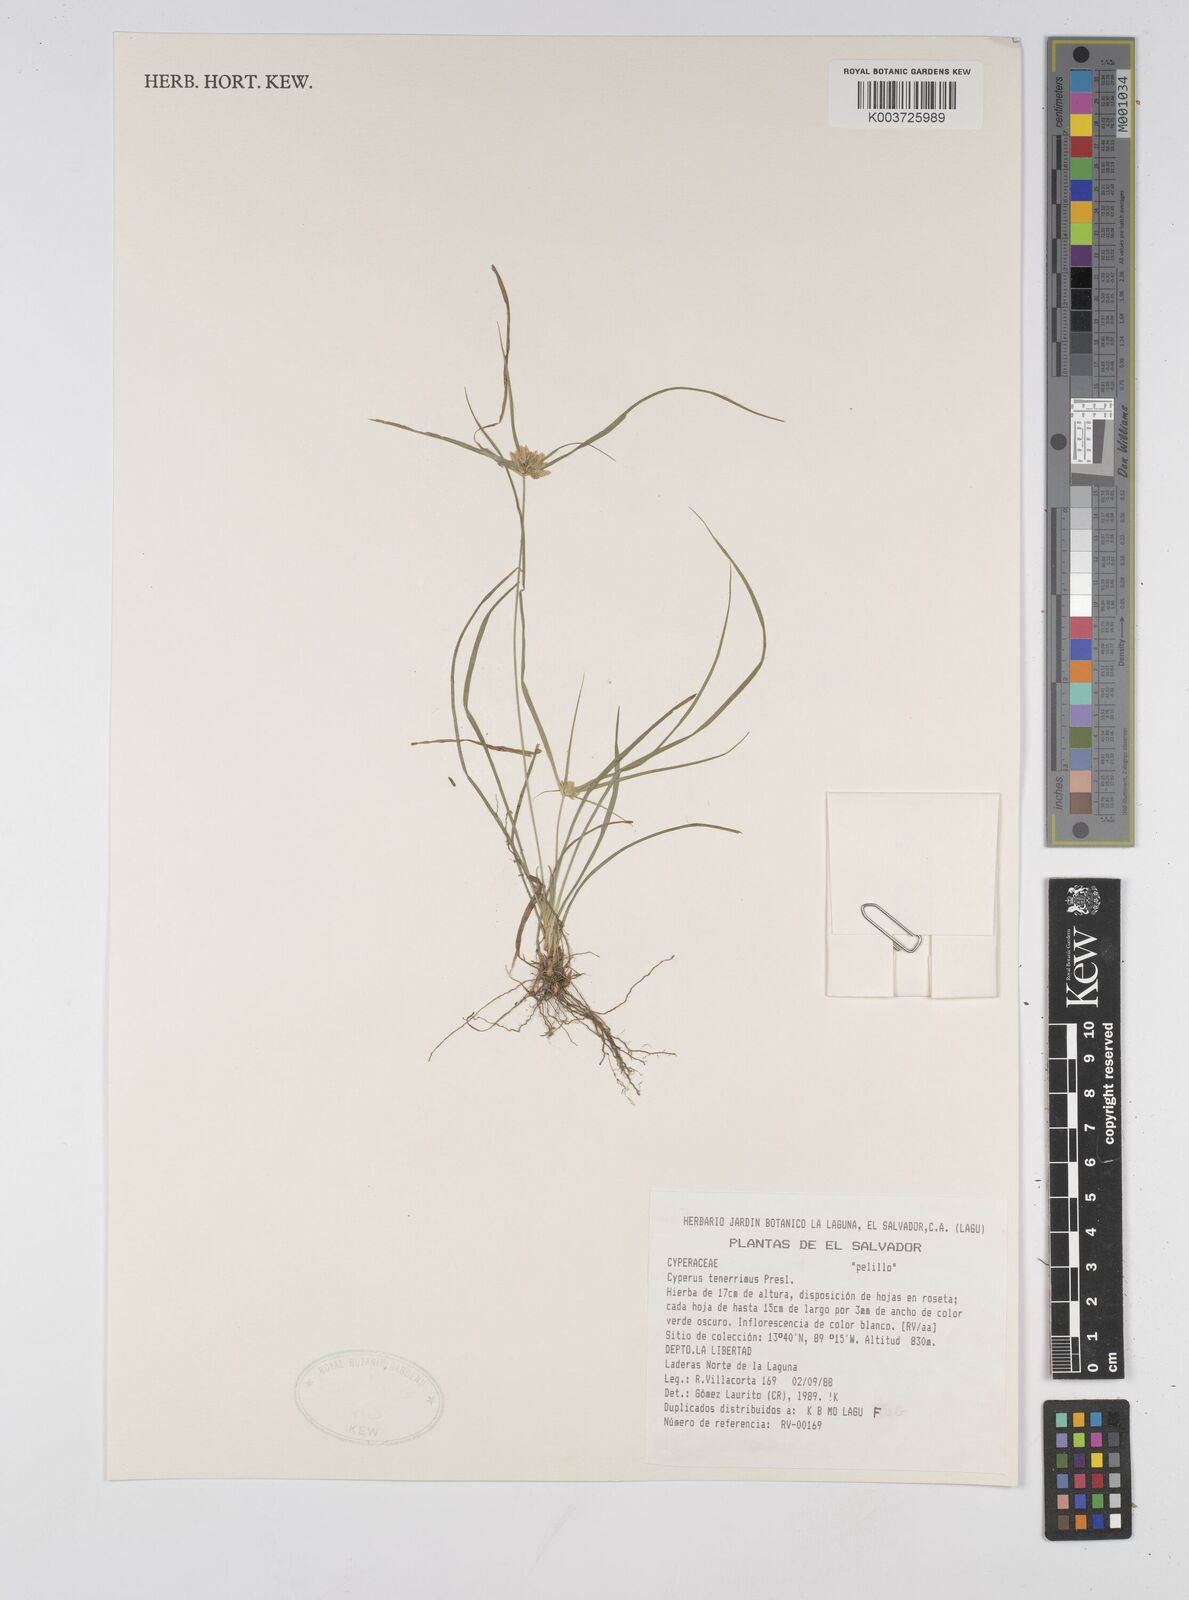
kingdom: Plantae
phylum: Tracheophyta
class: Liliopsida
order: Poales
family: Cyperaceae
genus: Cyperus
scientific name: Cyperus tenerrimus
